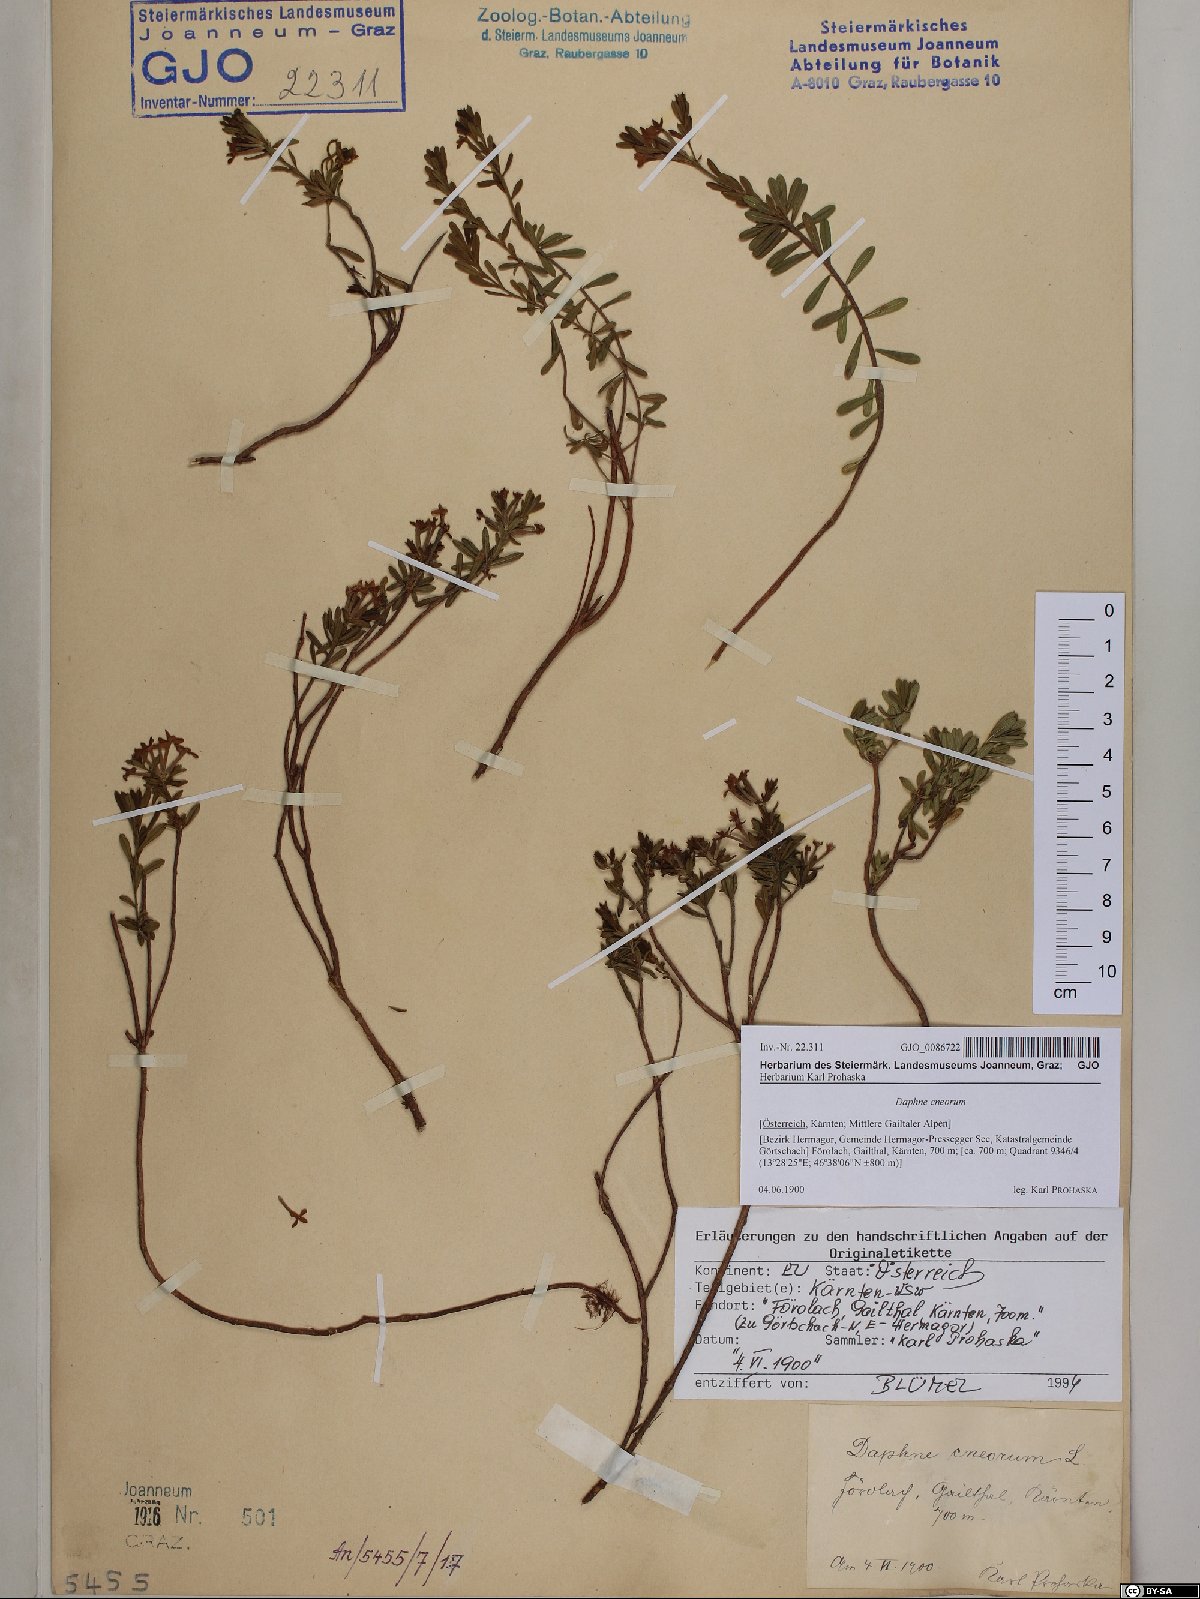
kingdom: Plantae
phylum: Tracheophyta
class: Magnoliopsida
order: Malvales
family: Thymelaeaceae
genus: Daphne
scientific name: Daphne cneorum
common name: Garland-flower
